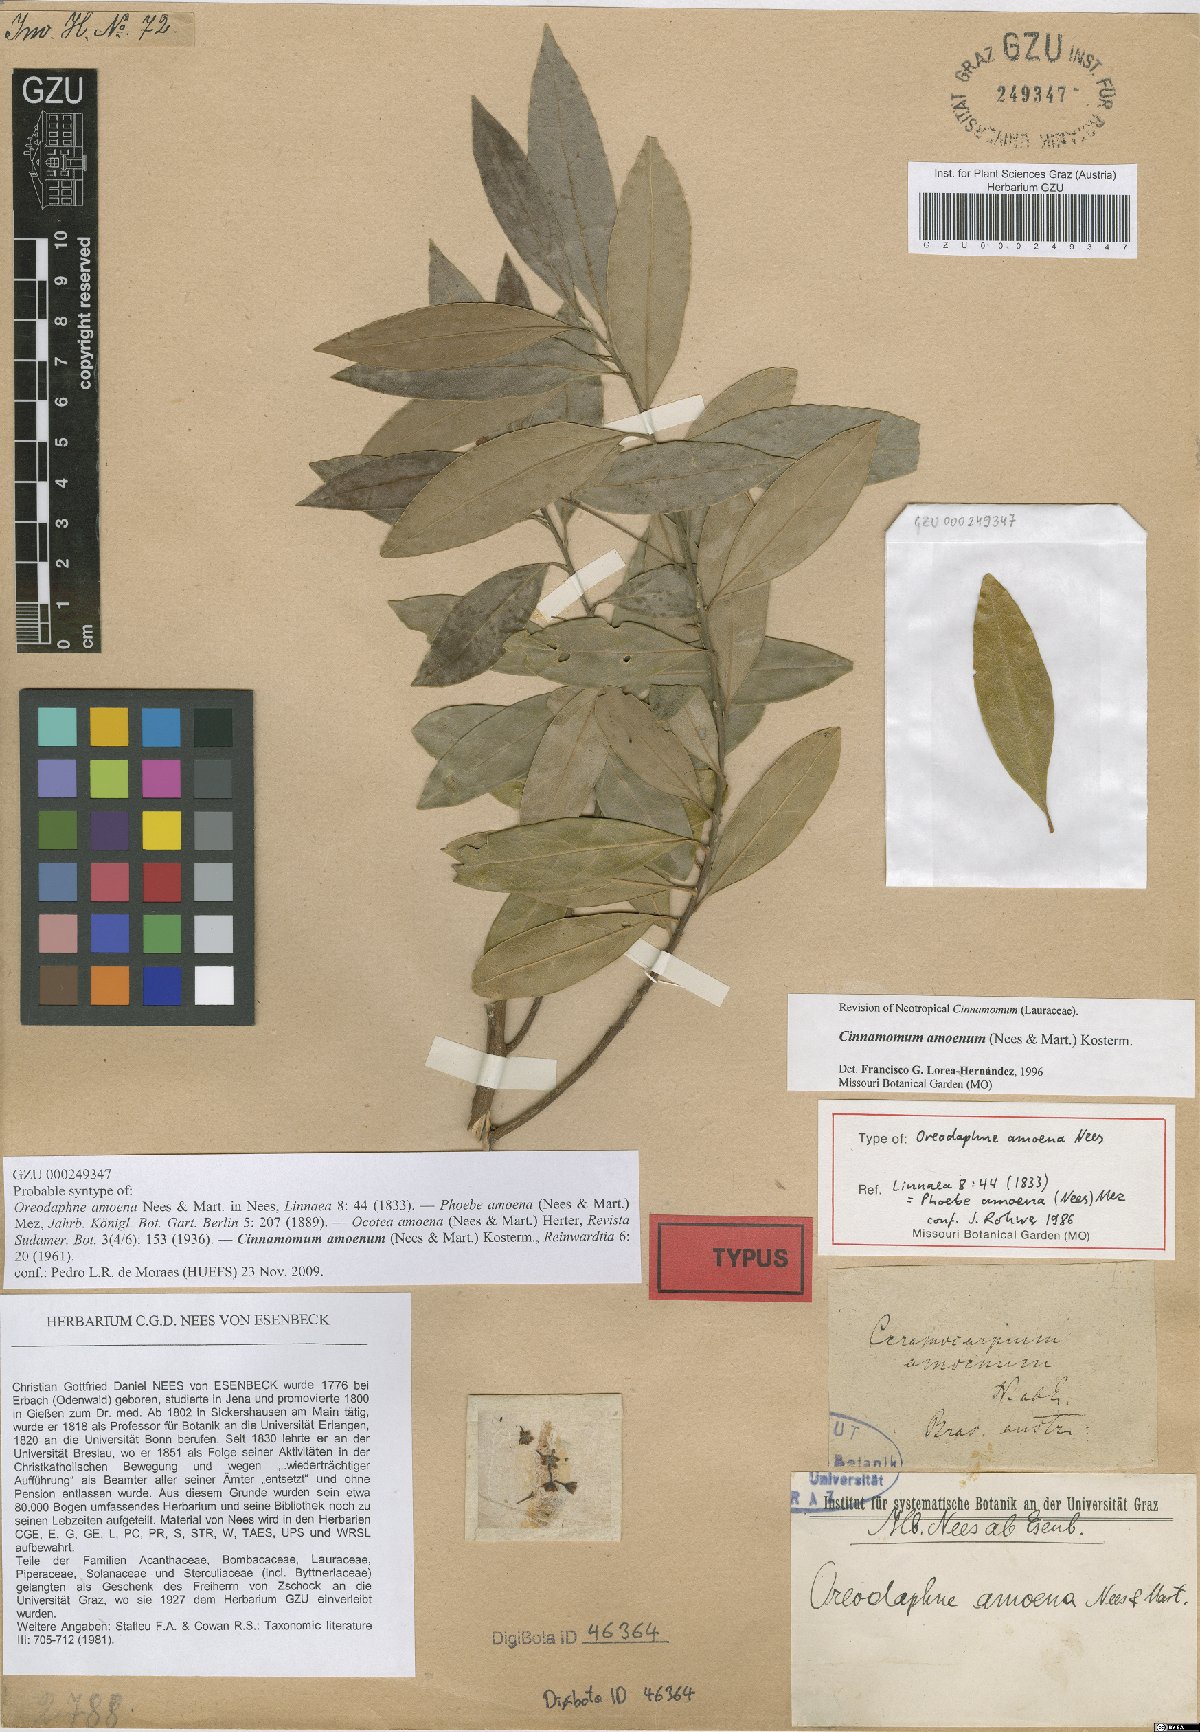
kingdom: Plantae
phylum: Tracheophyta
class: Magnoliopsida
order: Laurales
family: Lauraceae
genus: Aiouea
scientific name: Aiouea amoena
